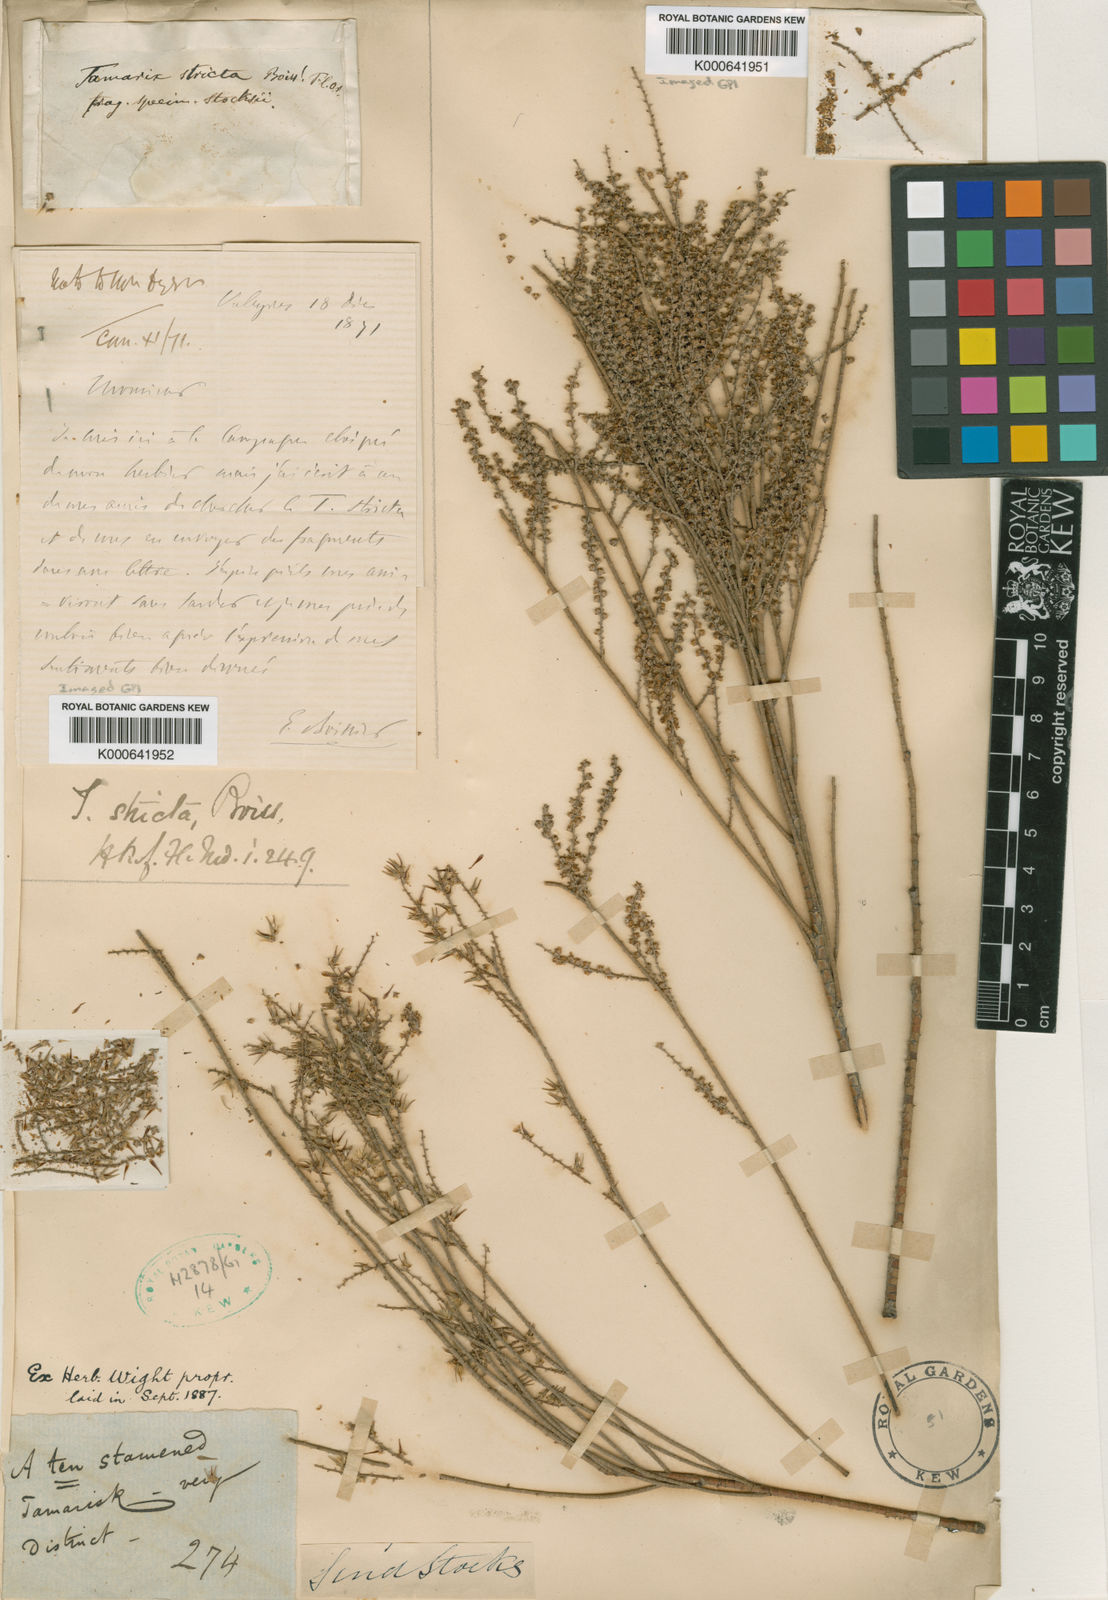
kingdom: Plantae
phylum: Tracheophyta
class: Magnoliopsida
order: Caryophyllales
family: Tamaricaceae
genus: Tamarix
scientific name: Tamarix stricta
